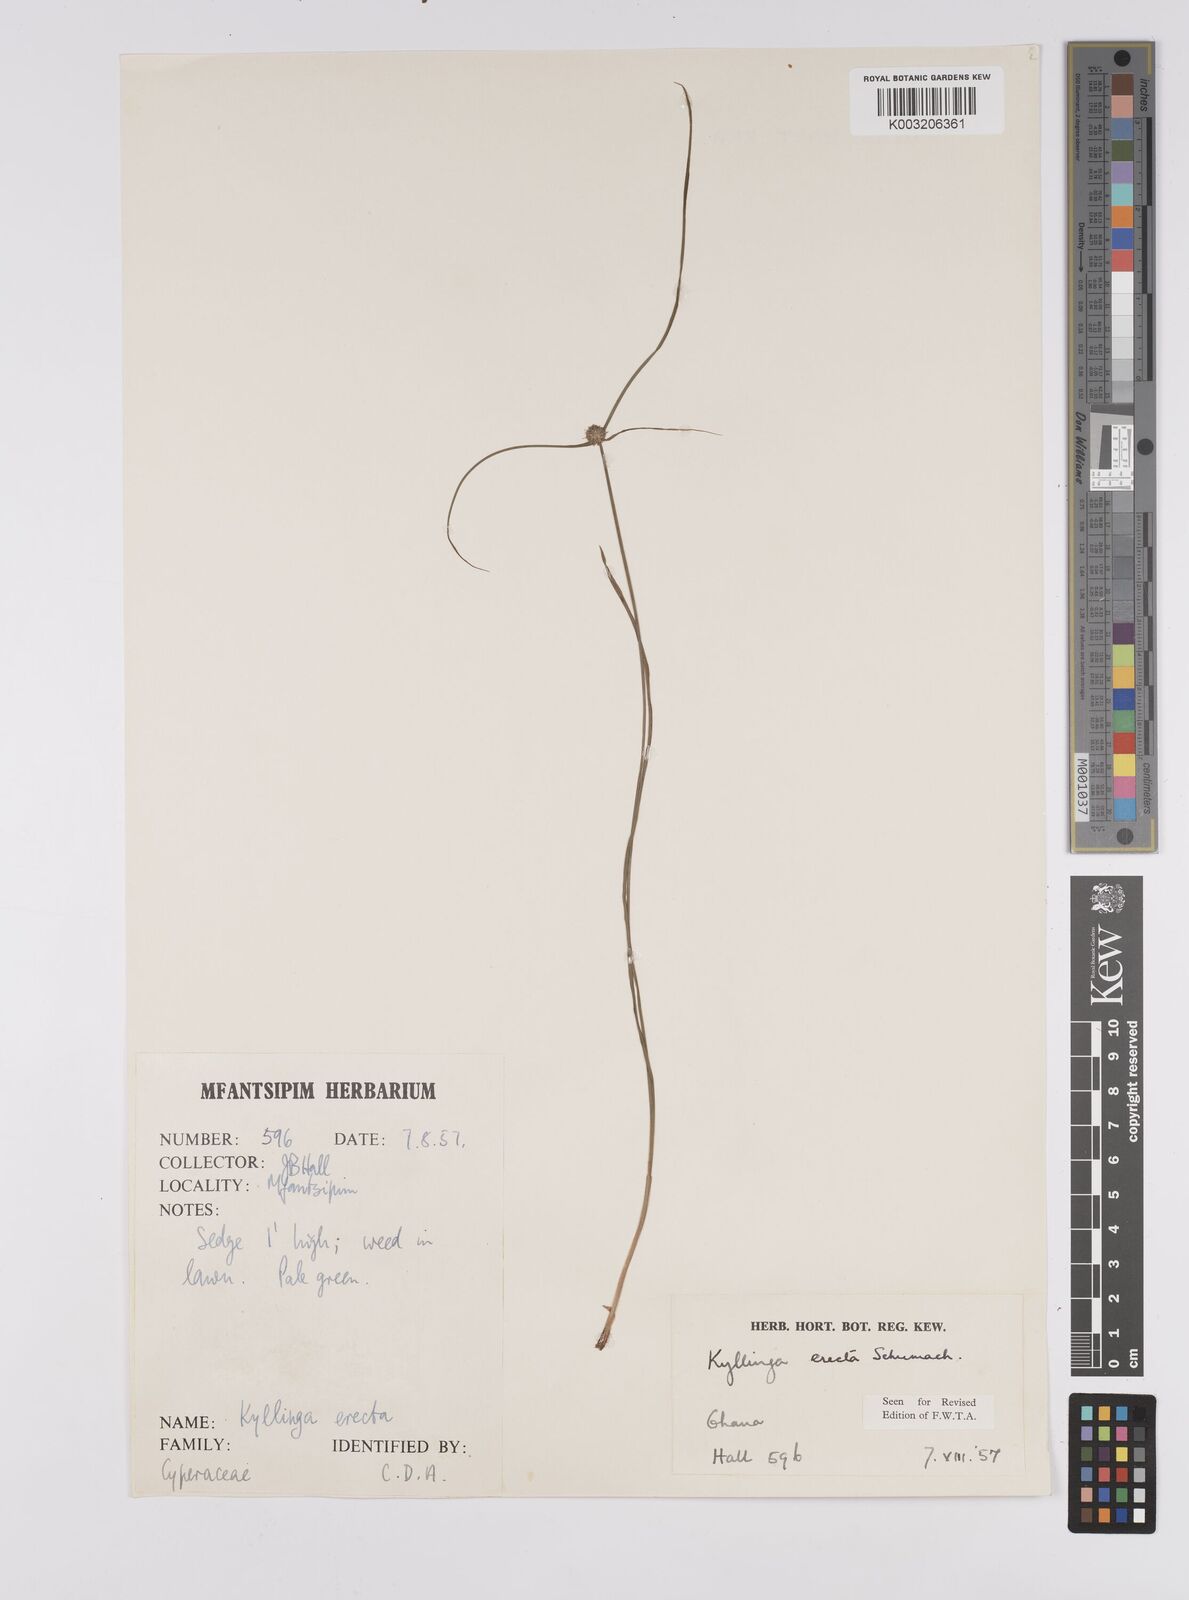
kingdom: Plantae
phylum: Tracheophyta
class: Liliopsida
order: Poales
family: Cyperaceae
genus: Cyperus
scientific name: Cyperus erectus
